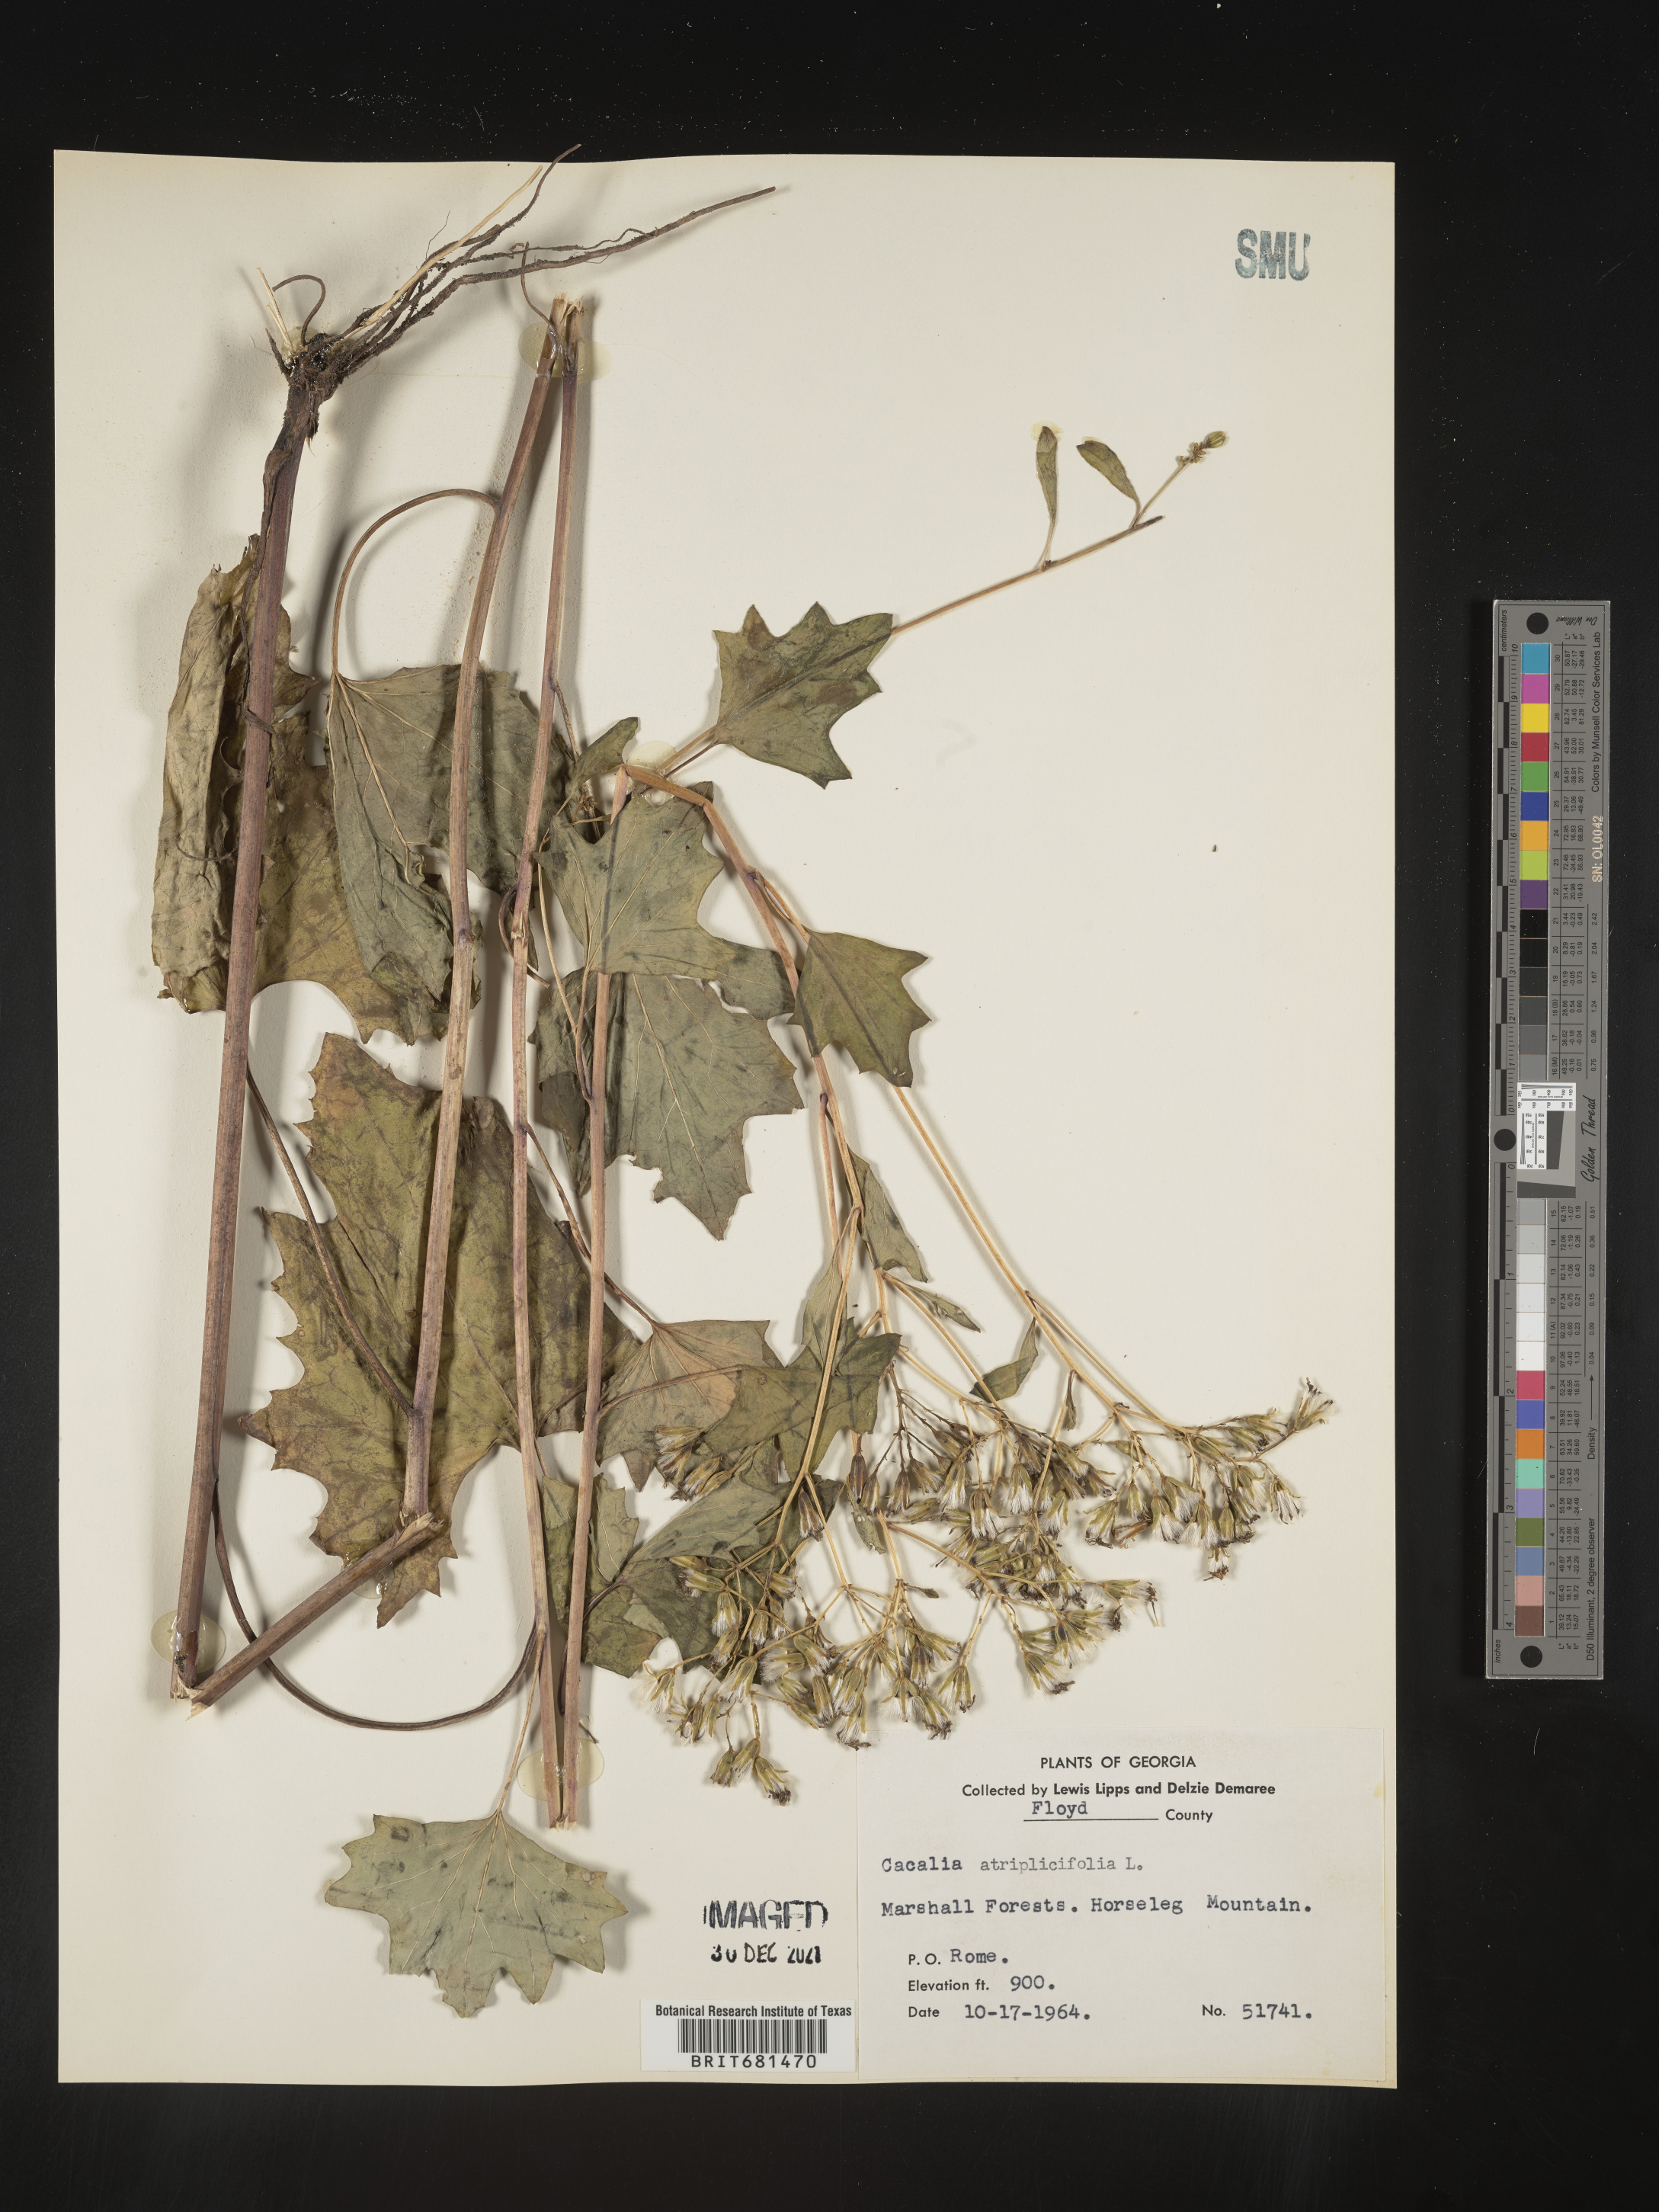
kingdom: Plantae
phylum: Tracheophyta
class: Magnoliopsida
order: Asterales
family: Asteraceae
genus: Arnoglossum
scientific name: Arnoglossum atriplicifolium
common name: Pale indian-plantain
